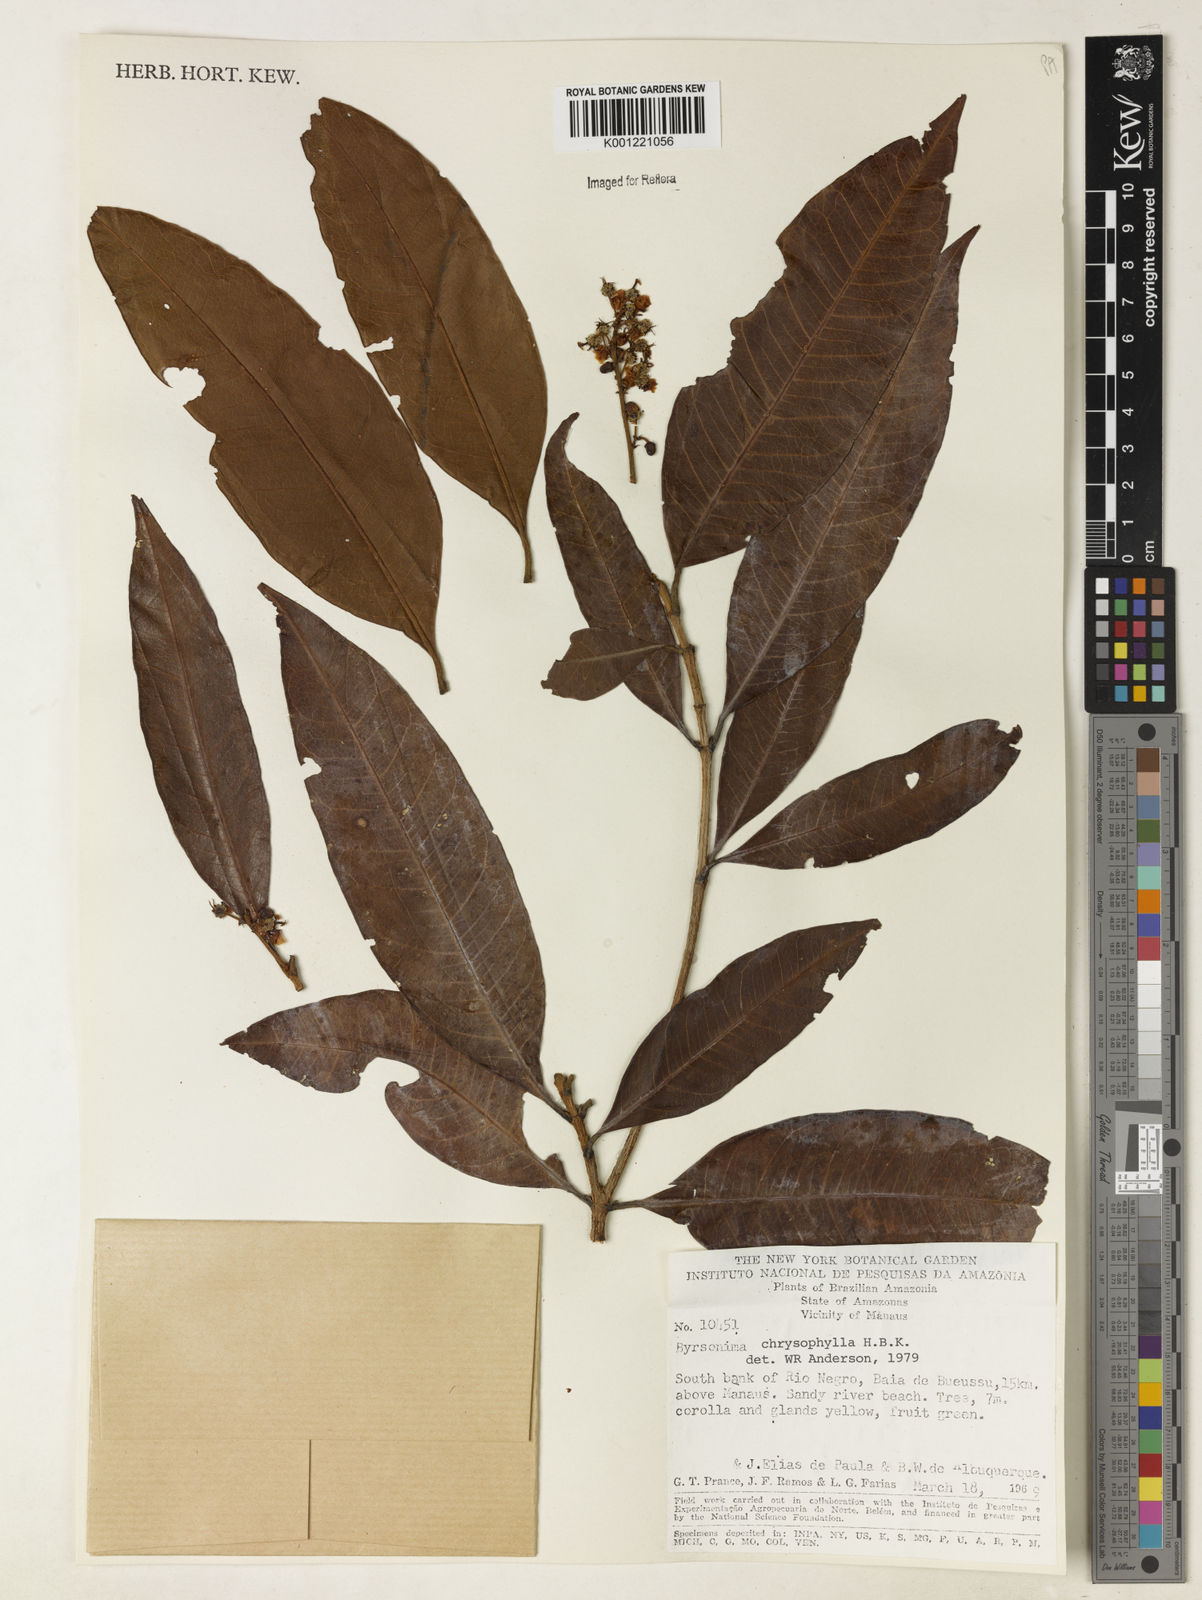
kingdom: Plantae
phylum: Tracheophyta
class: Magnoliopsida
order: Malpighiales
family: Malpighiaceae
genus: Byrsonima
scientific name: Byrsonima chrysophylla
